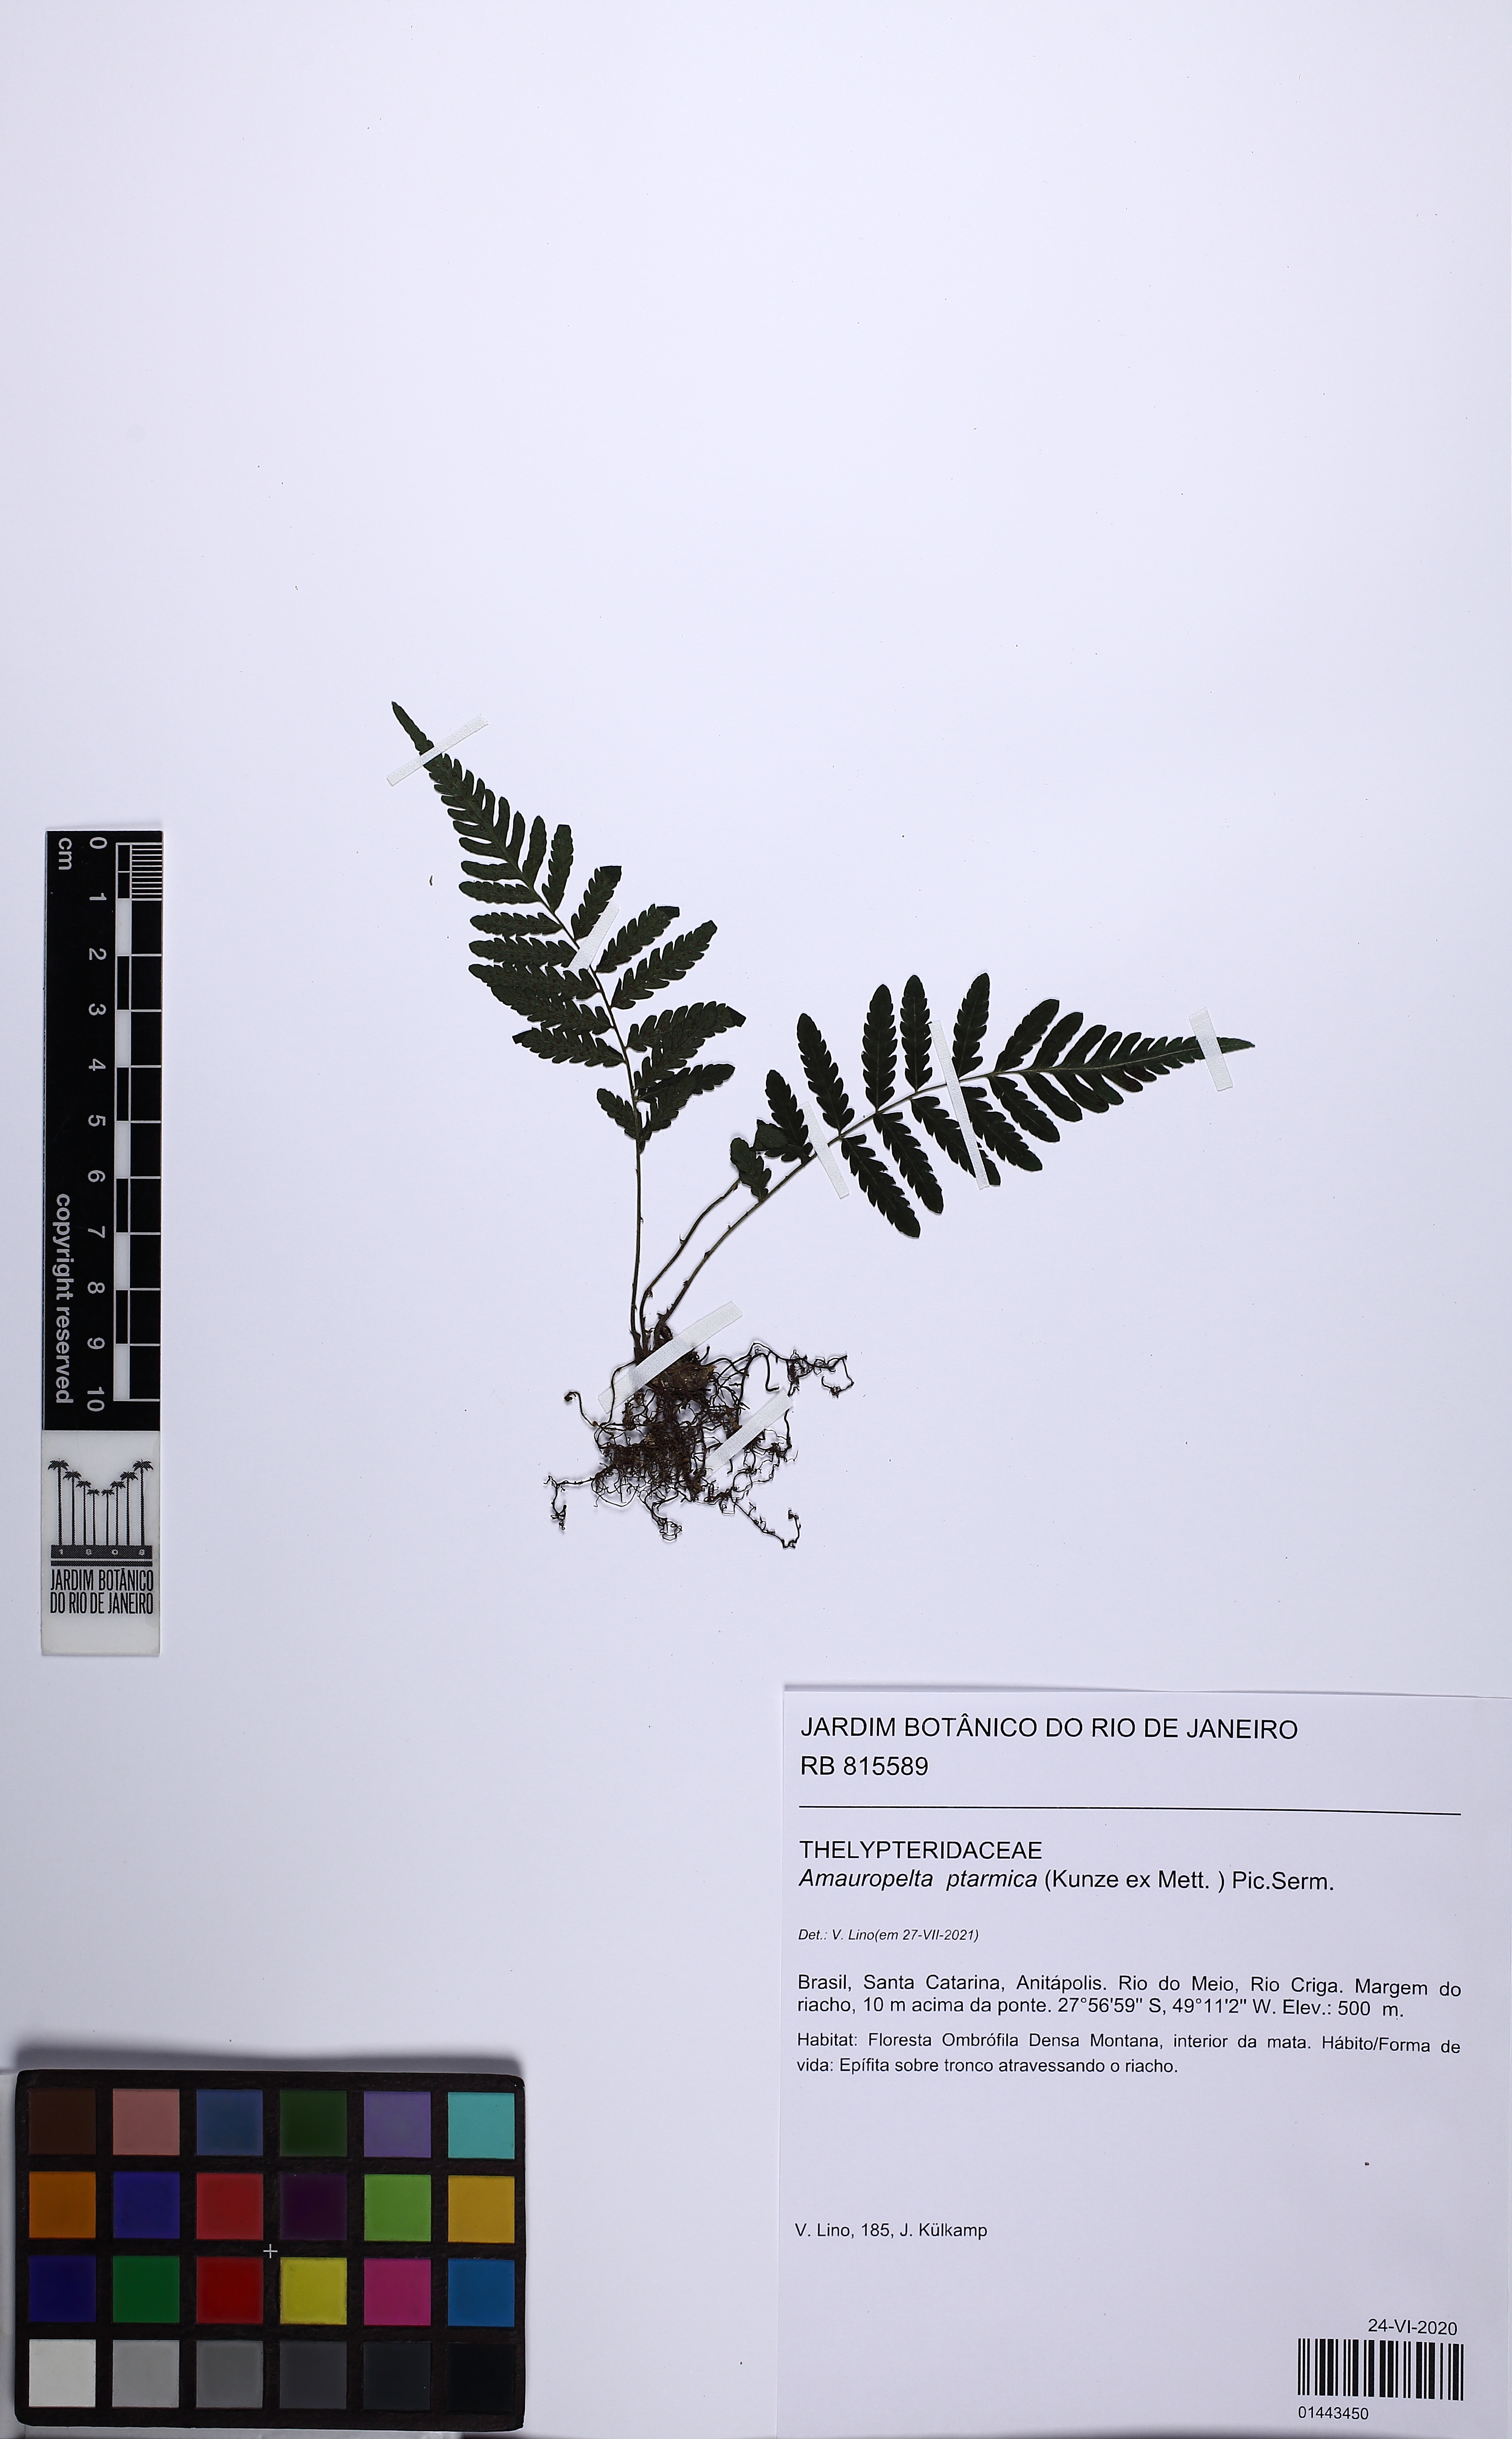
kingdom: Plantae
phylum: Tracheophyta
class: Polypodiopsida
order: Polypodiales
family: Thelypteridaceae
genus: Amauropelta
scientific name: Amauropelta ptarmica
